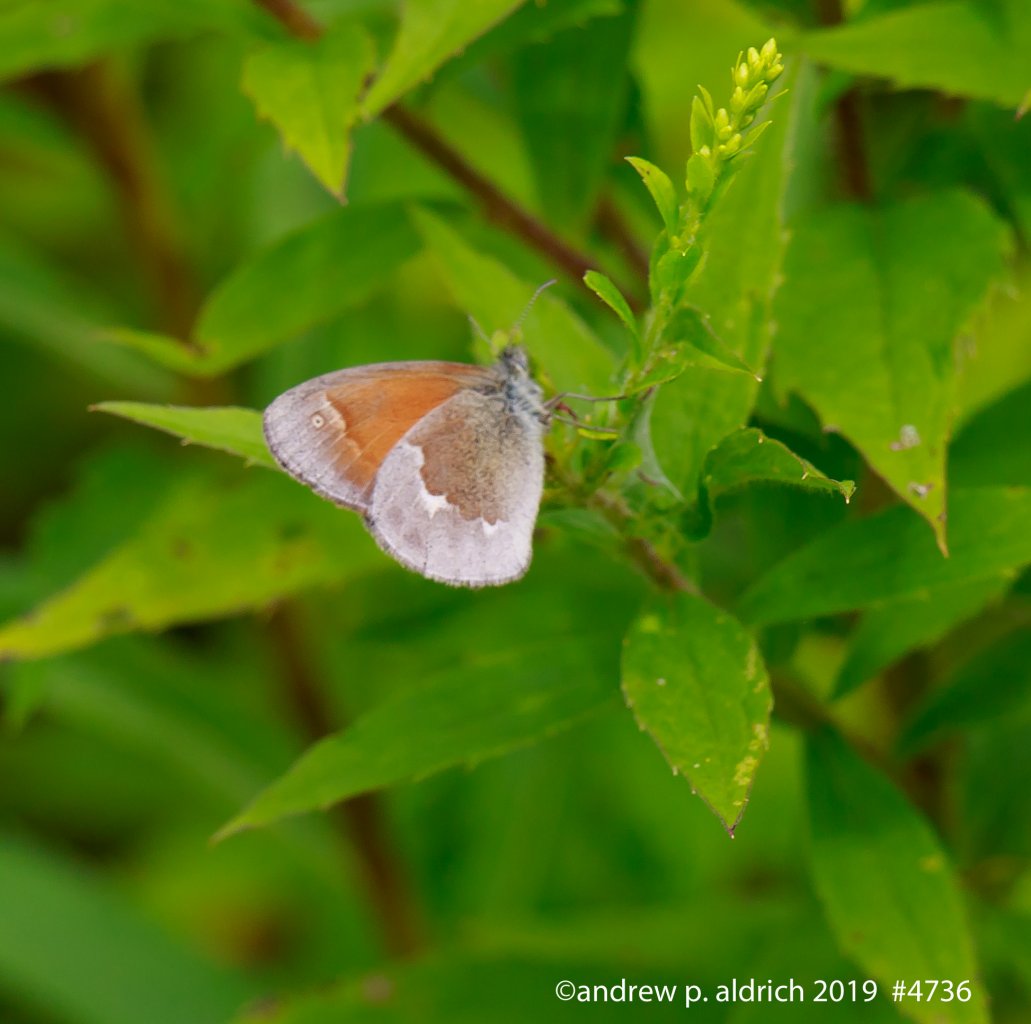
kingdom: Animalia
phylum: Arthropoda
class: Insecta
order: Lepidoptera
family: Nymphalidae
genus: Coenonympha
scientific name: Coenonympha tullia
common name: Large Heath
